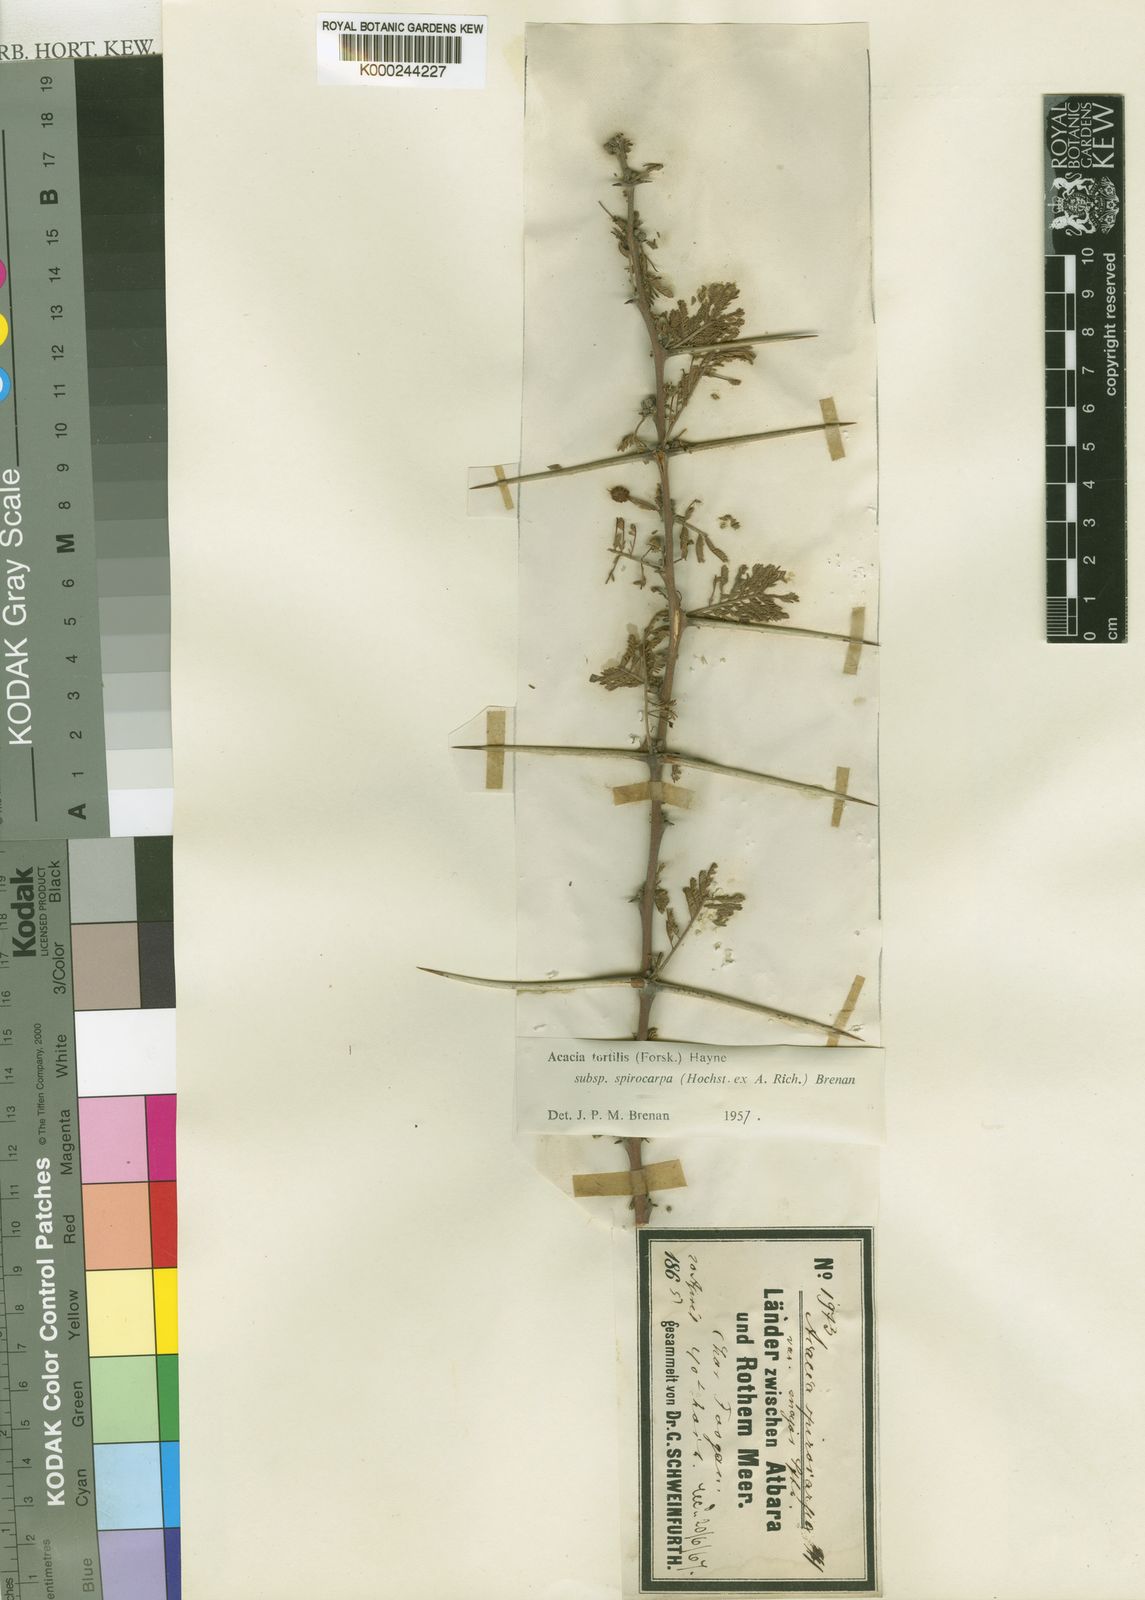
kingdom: Plantae
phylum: Tracheophyta
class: Magnoliopsida
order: Fabales
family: Fabaceae
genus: Vachellia
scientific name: Vachellia tortilis
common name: Umbrella thorn acacia
